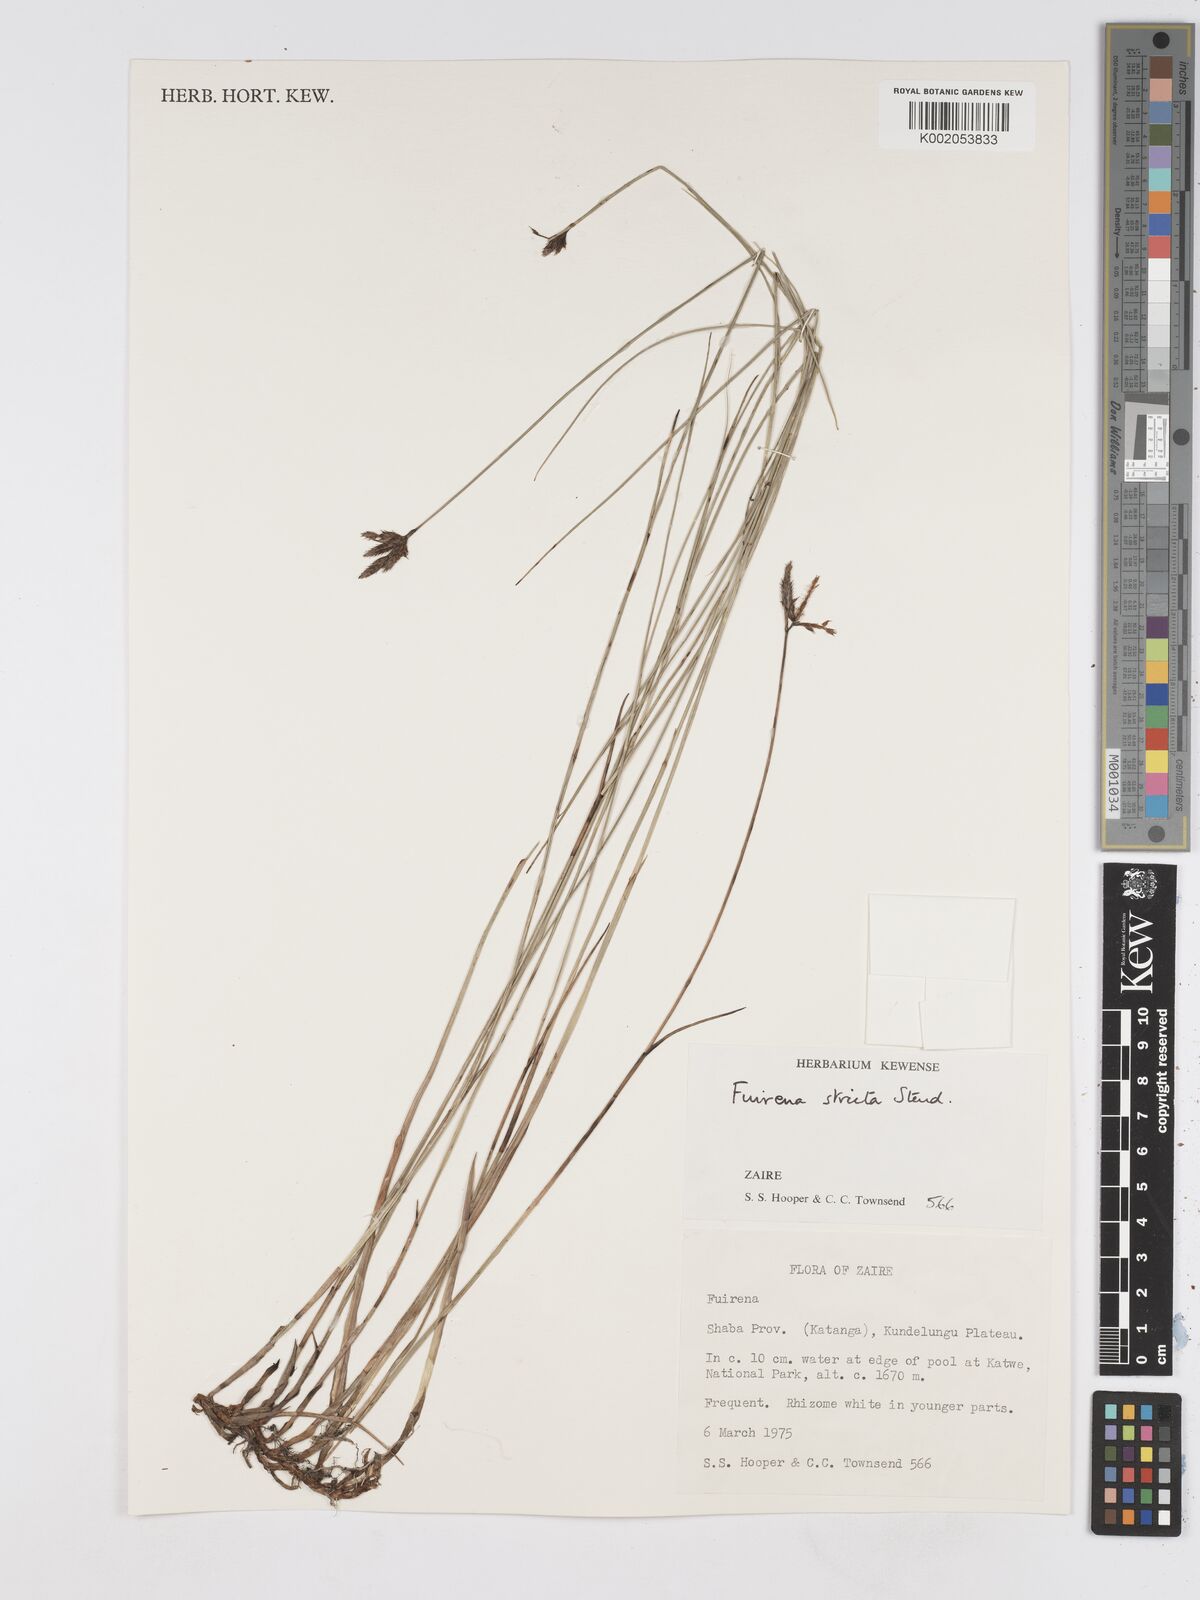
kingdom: Plantae
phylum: Tracheophyta
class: Liliopsida
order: Poales
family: Cyperaceae
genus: Fuirena
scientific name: Fuirena stricta
